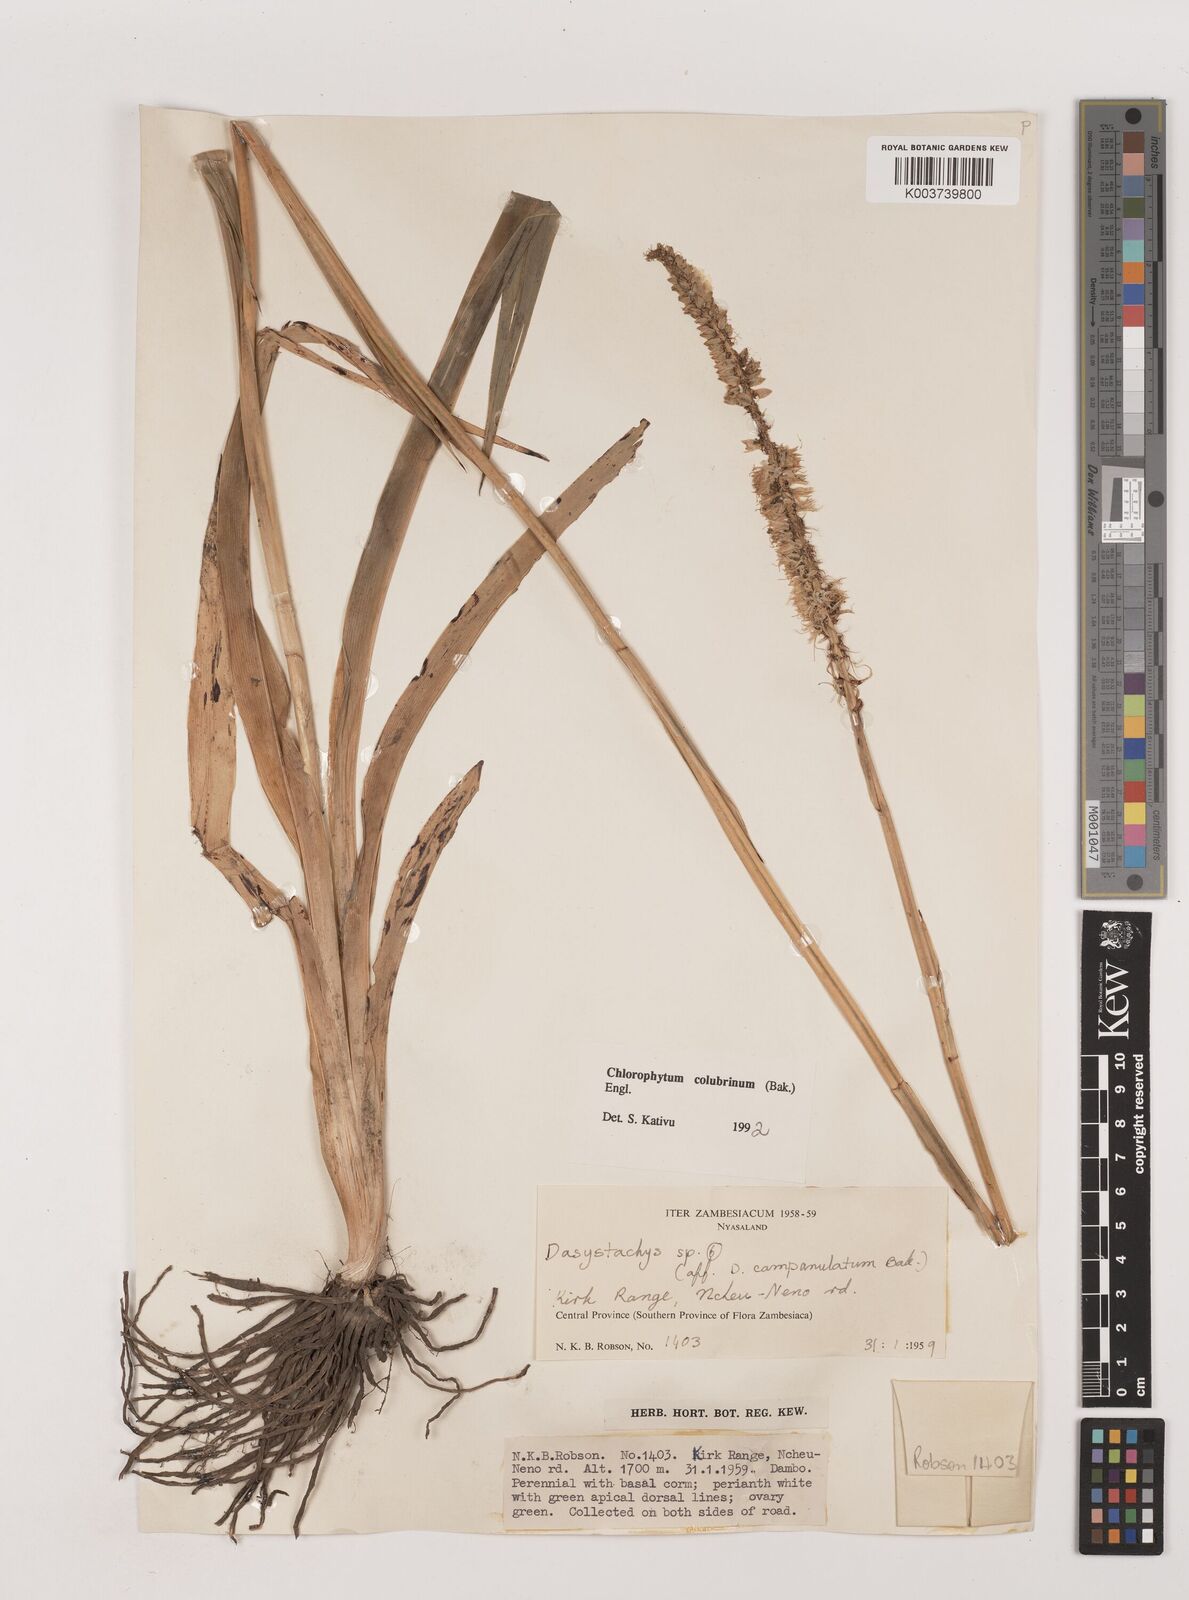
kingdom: Plantae
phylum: Tracheophyta
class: Liliopsida
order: Asparagales
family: Asparagaceae
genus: Chlorophytum
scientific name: Chlorophytum colubrinum
